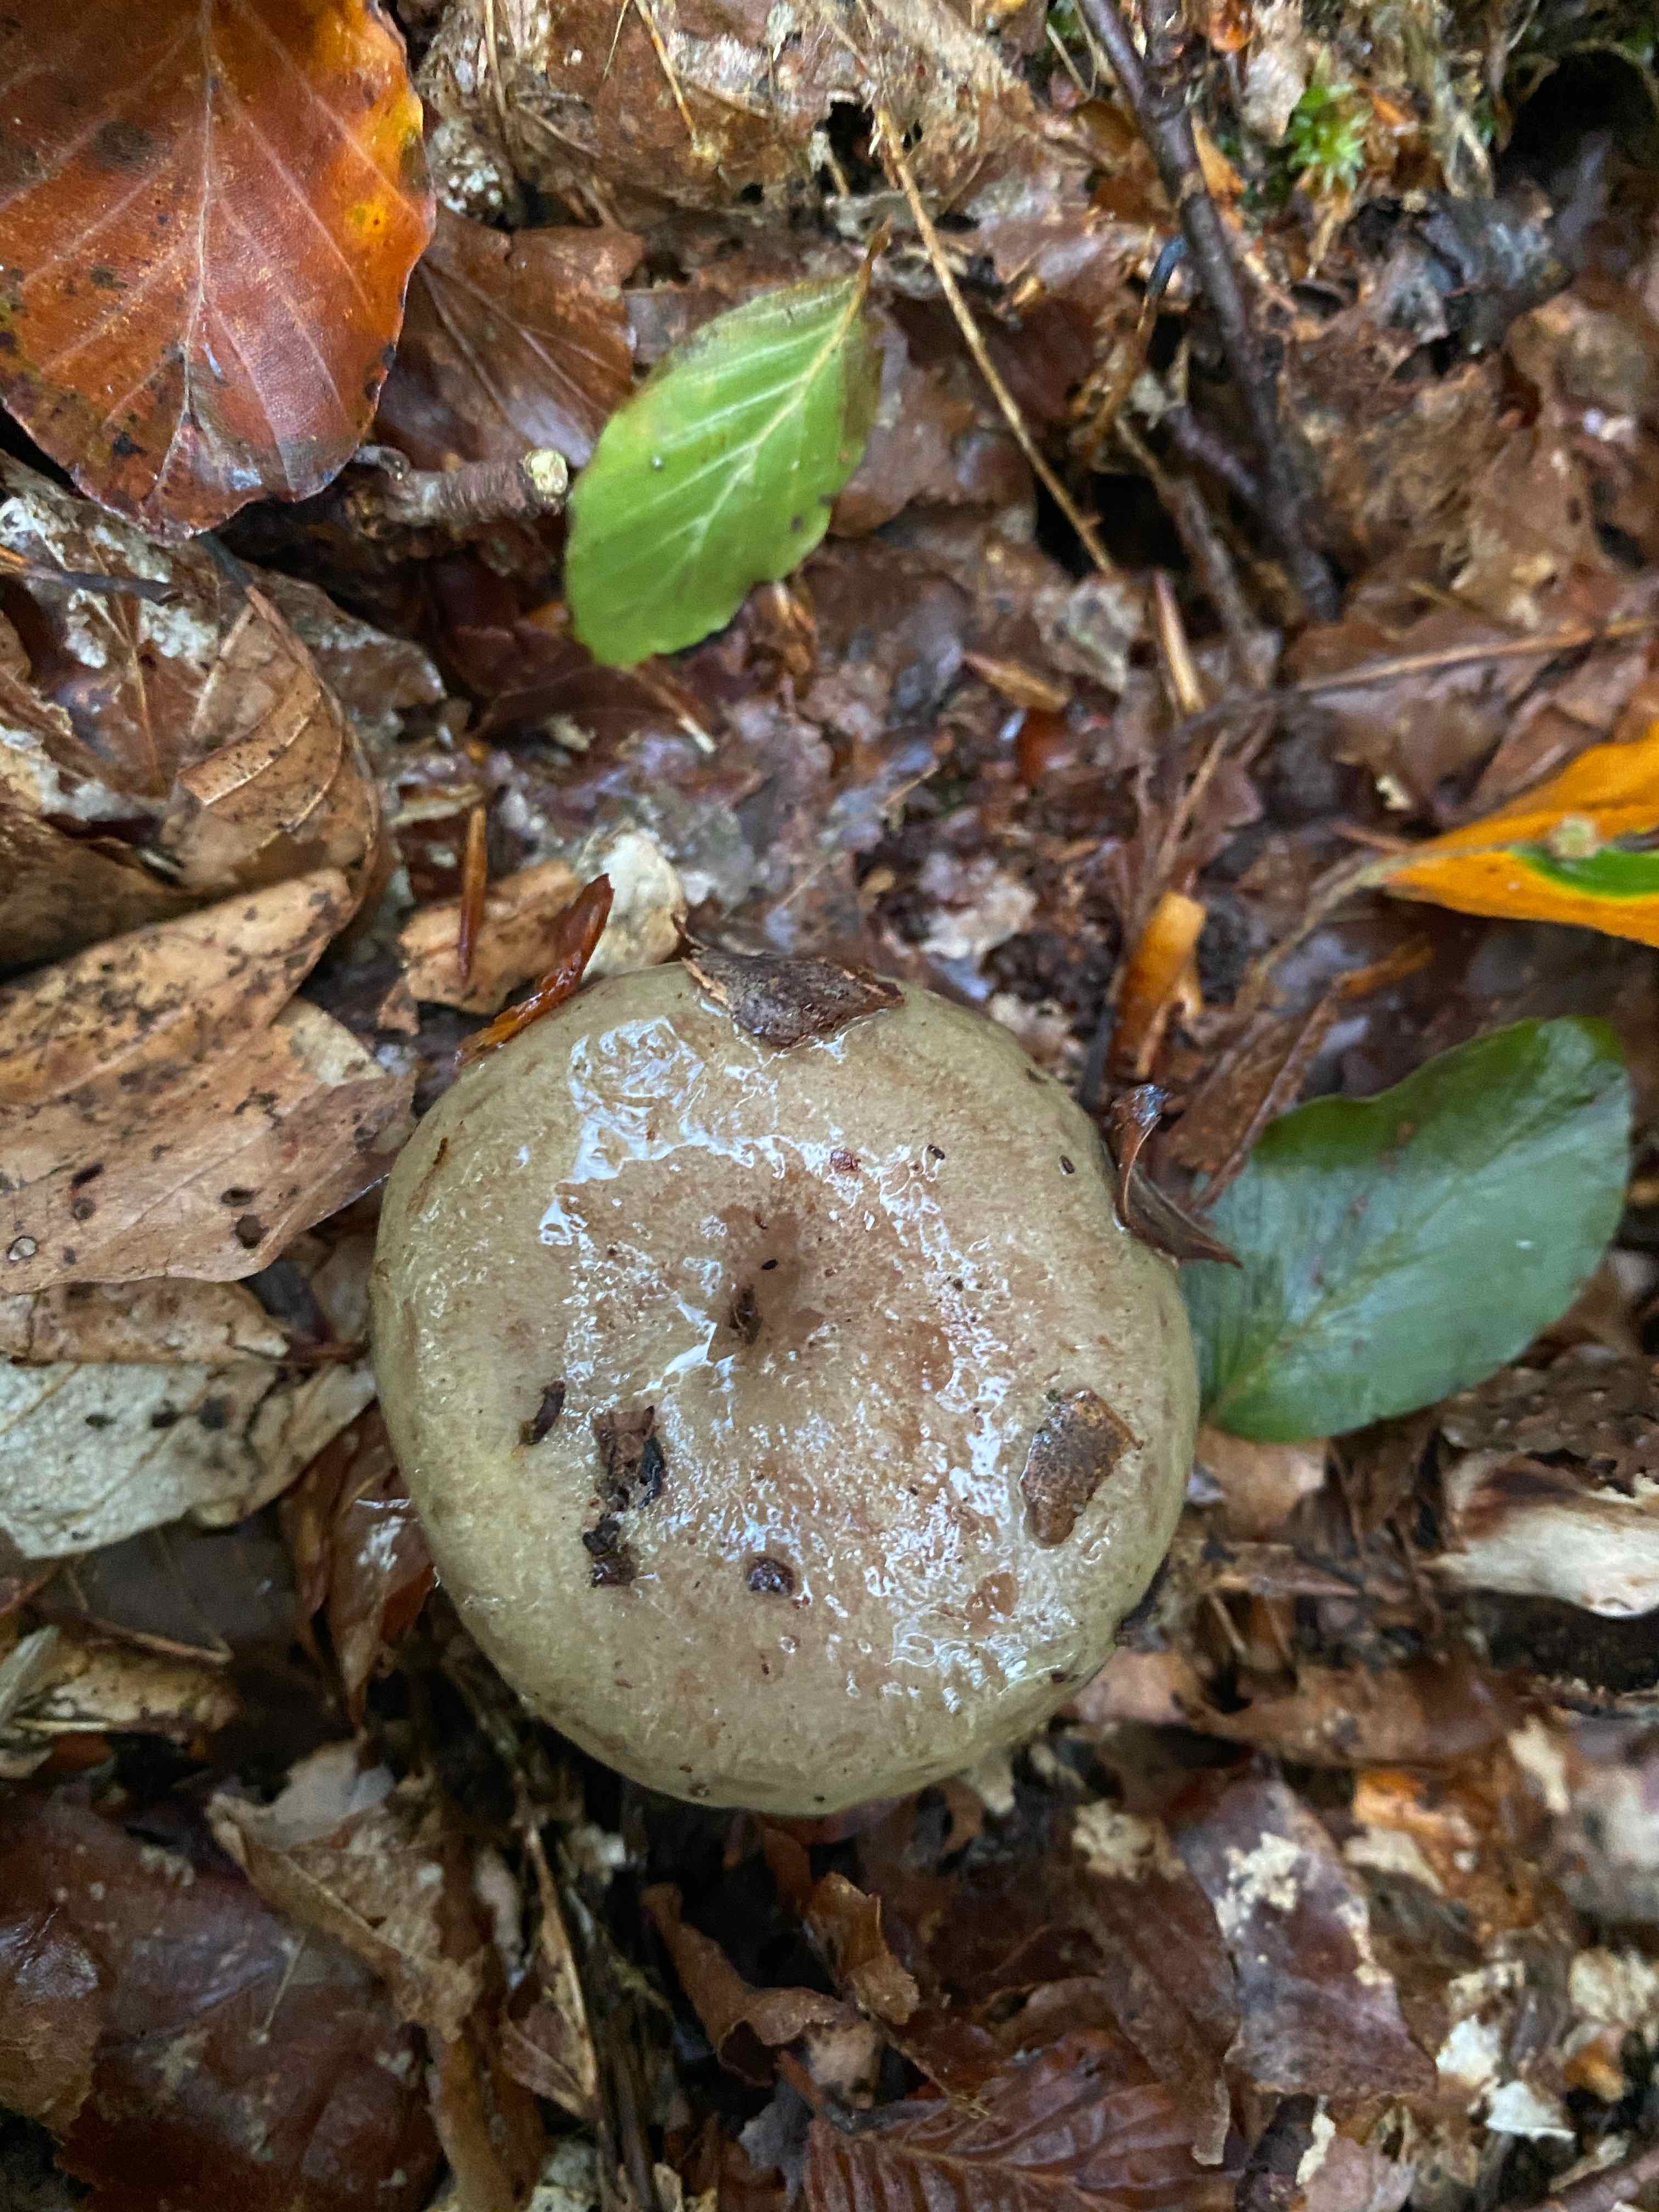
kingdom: Fungi
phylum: Basidiomycota
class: Agaricomycetes
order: Russulales
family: Russulaceae
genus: Lactarius
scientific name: Lactarius blennius
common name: dråbeplettet mælkehat
